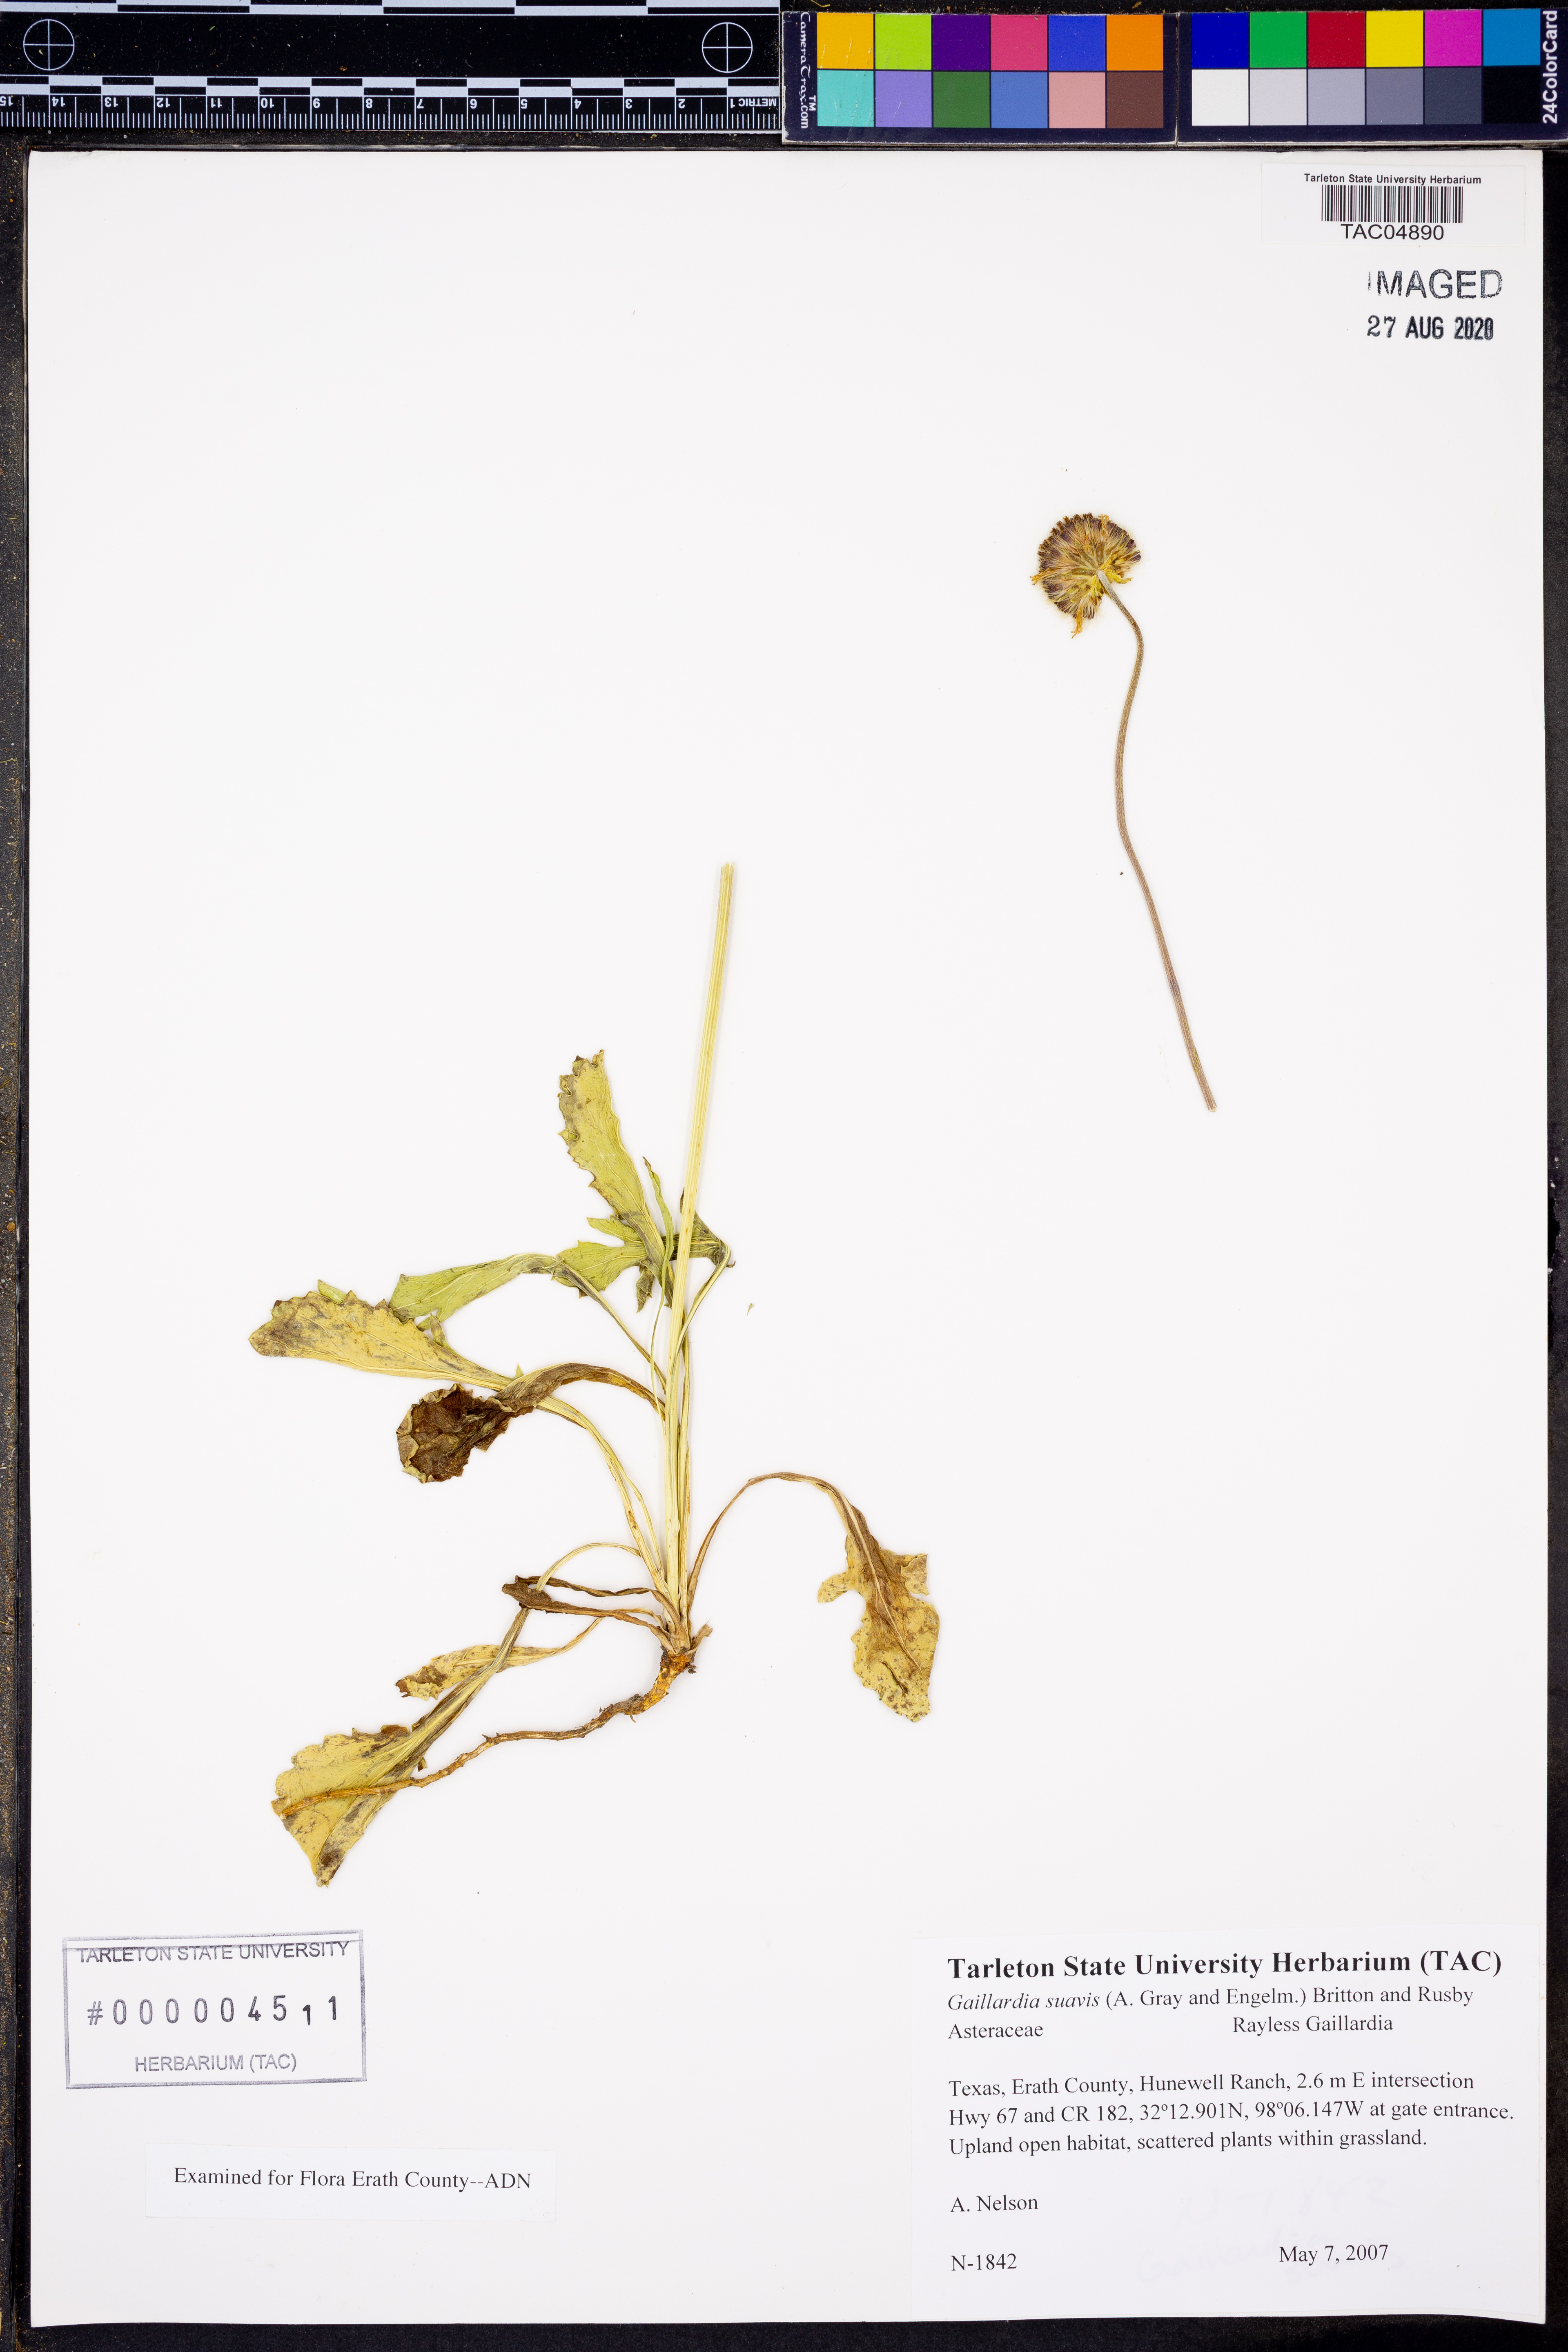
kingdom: Plantae
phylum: Tracheophyta
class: Magnoliopsida
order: Asterales
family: Asteraceae
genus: Gaillardia
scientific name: Gaillardia suavis
